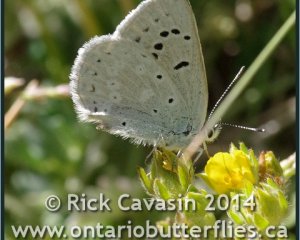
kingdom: Animalia
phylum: Arthropoda
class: Insecta
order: Lepidoptera
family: Lycaenidae
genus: Icaricia
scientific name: Icaricia icarioides
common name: Boisduval's Blue
